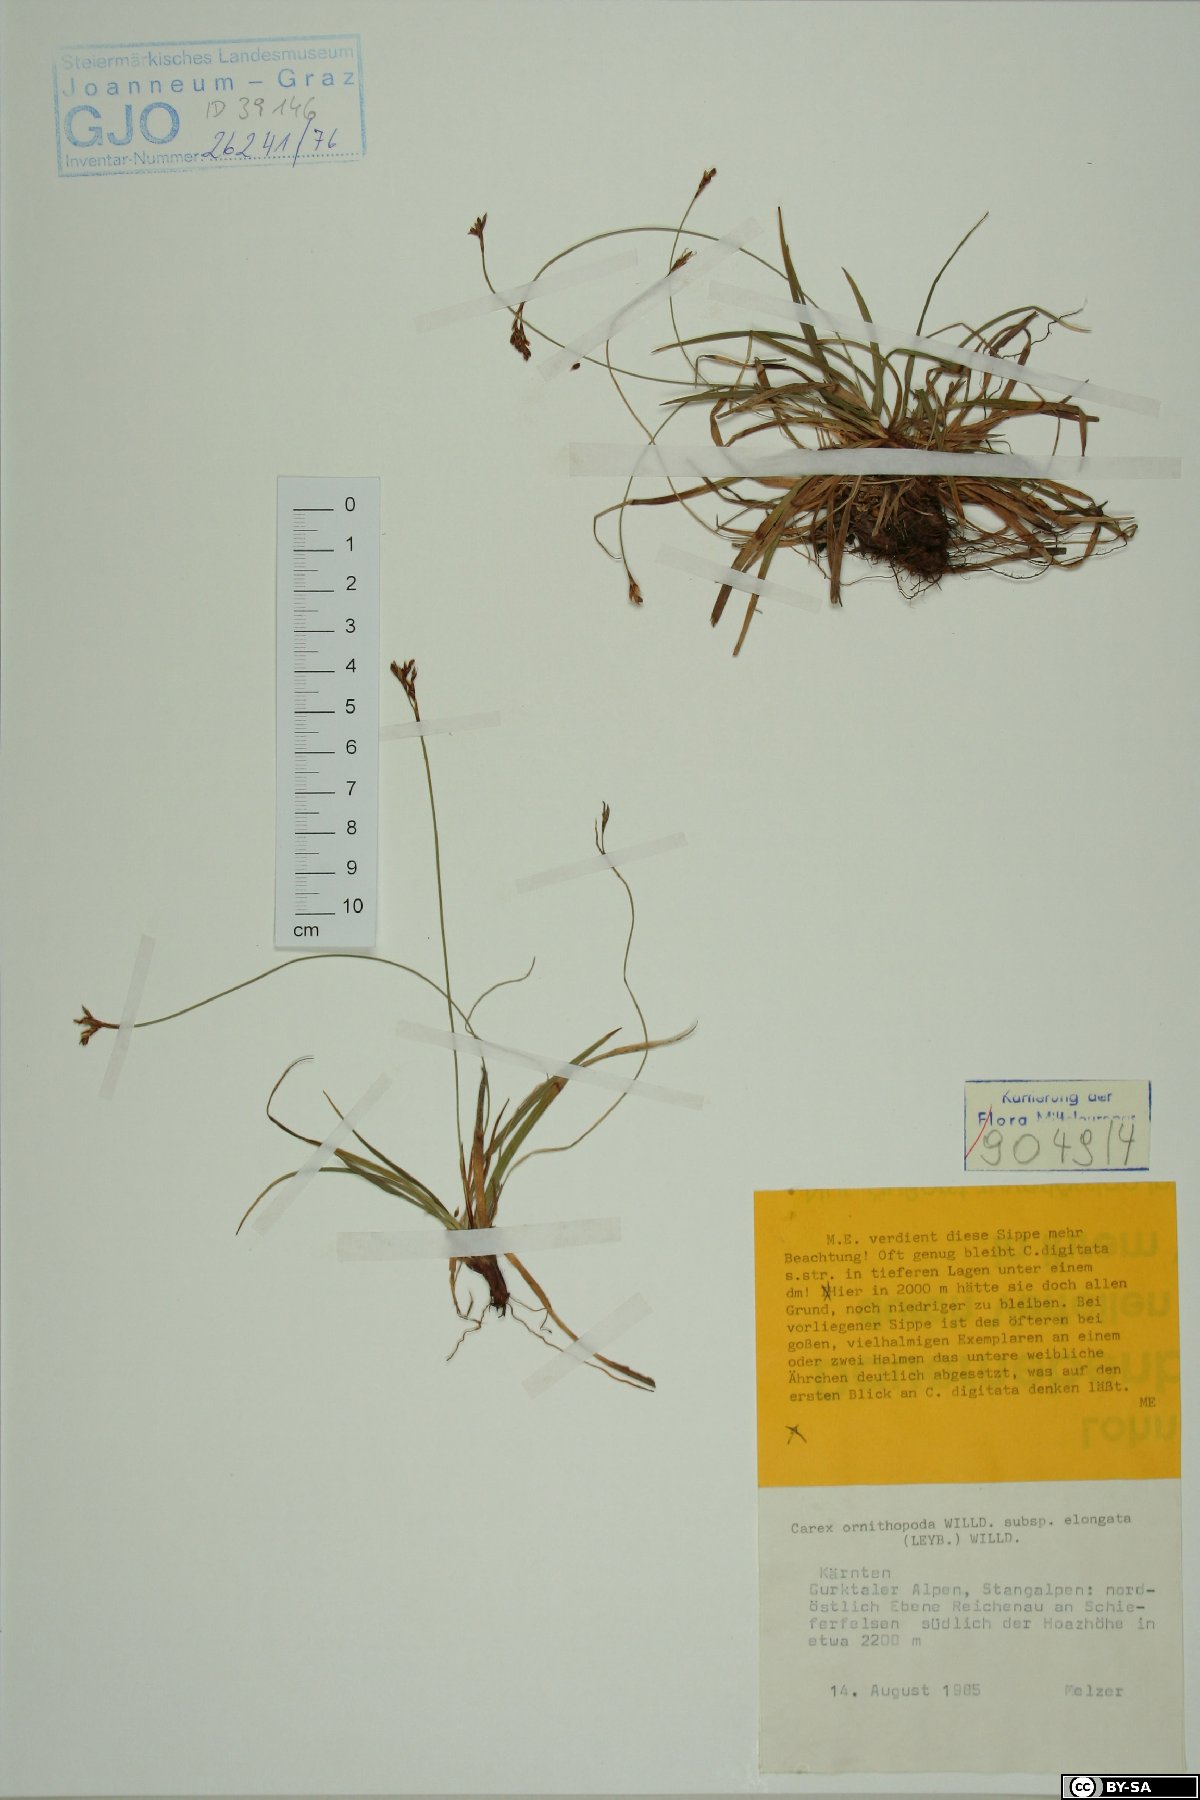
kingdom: Plantae
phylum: Tracheophyta
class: Liliopsida
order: Poales
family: Cyperaceae
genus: Carex
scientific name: Carex ornithopoda
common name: Bird's-foot sedge
